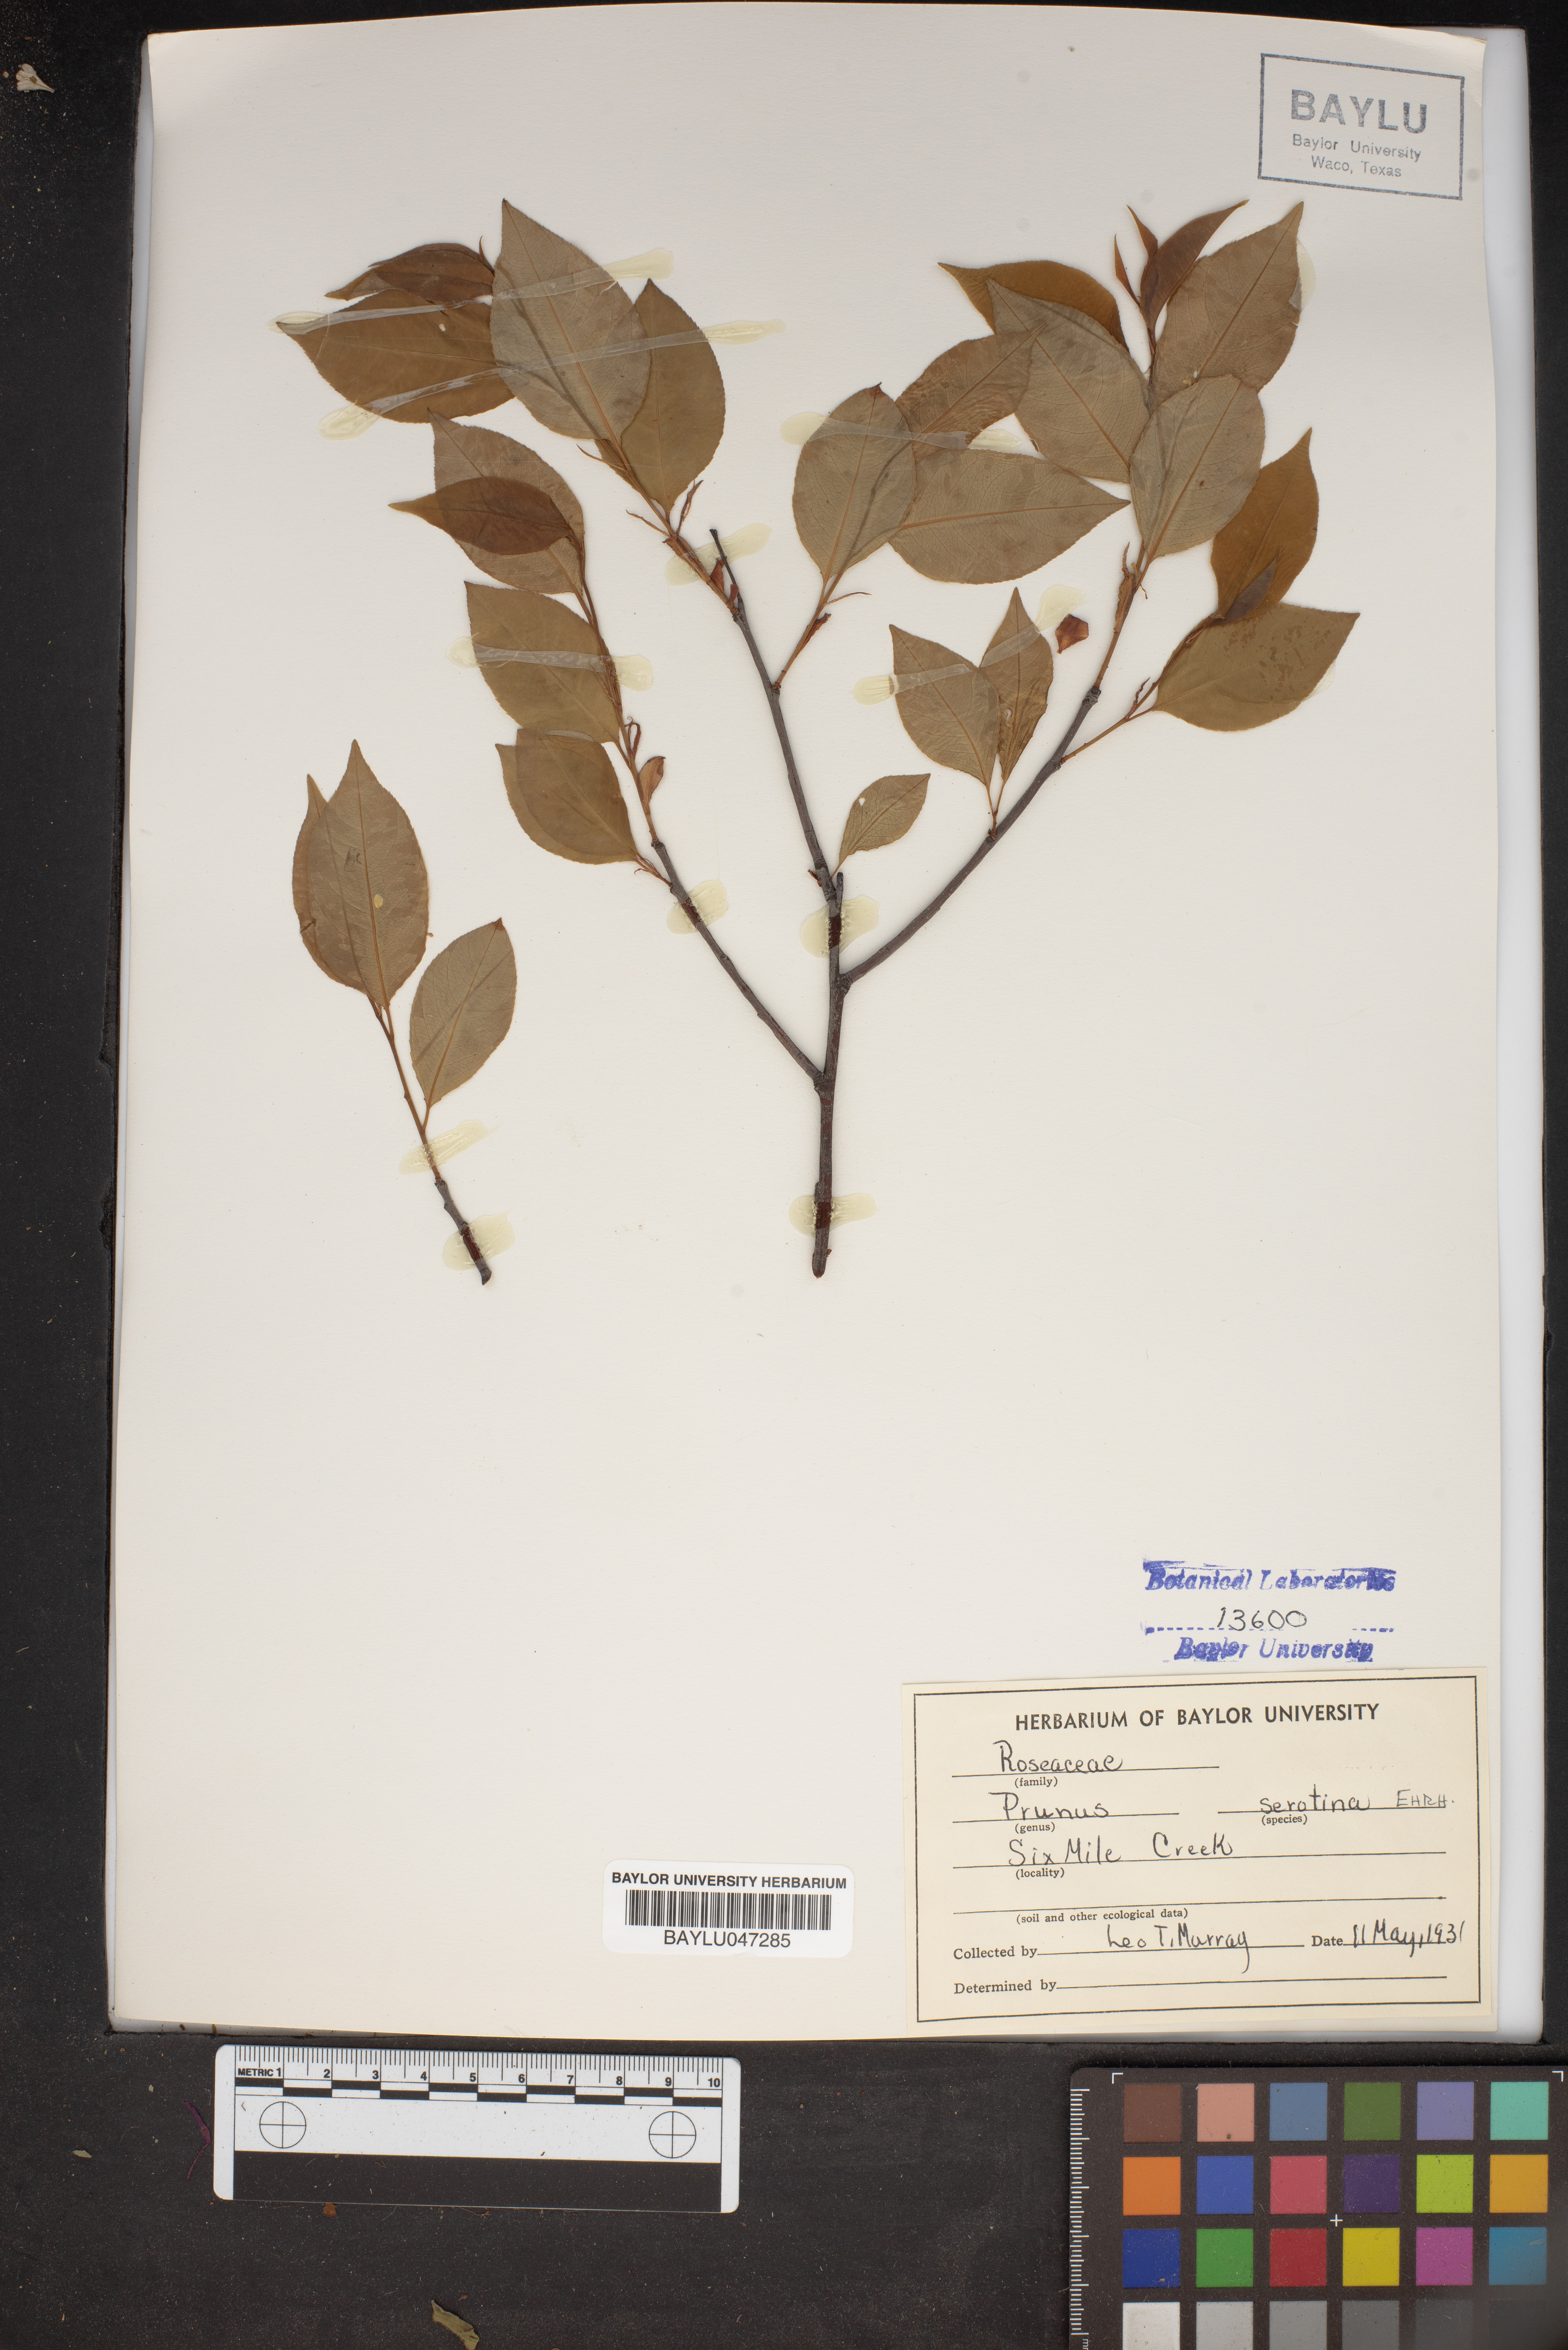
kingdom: Plantae
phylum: Tracheophyta
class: Magnoliopsida
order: Rosales
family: Rosaceae
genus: Prunus
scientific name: Prunus serotina
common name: Black cherry
